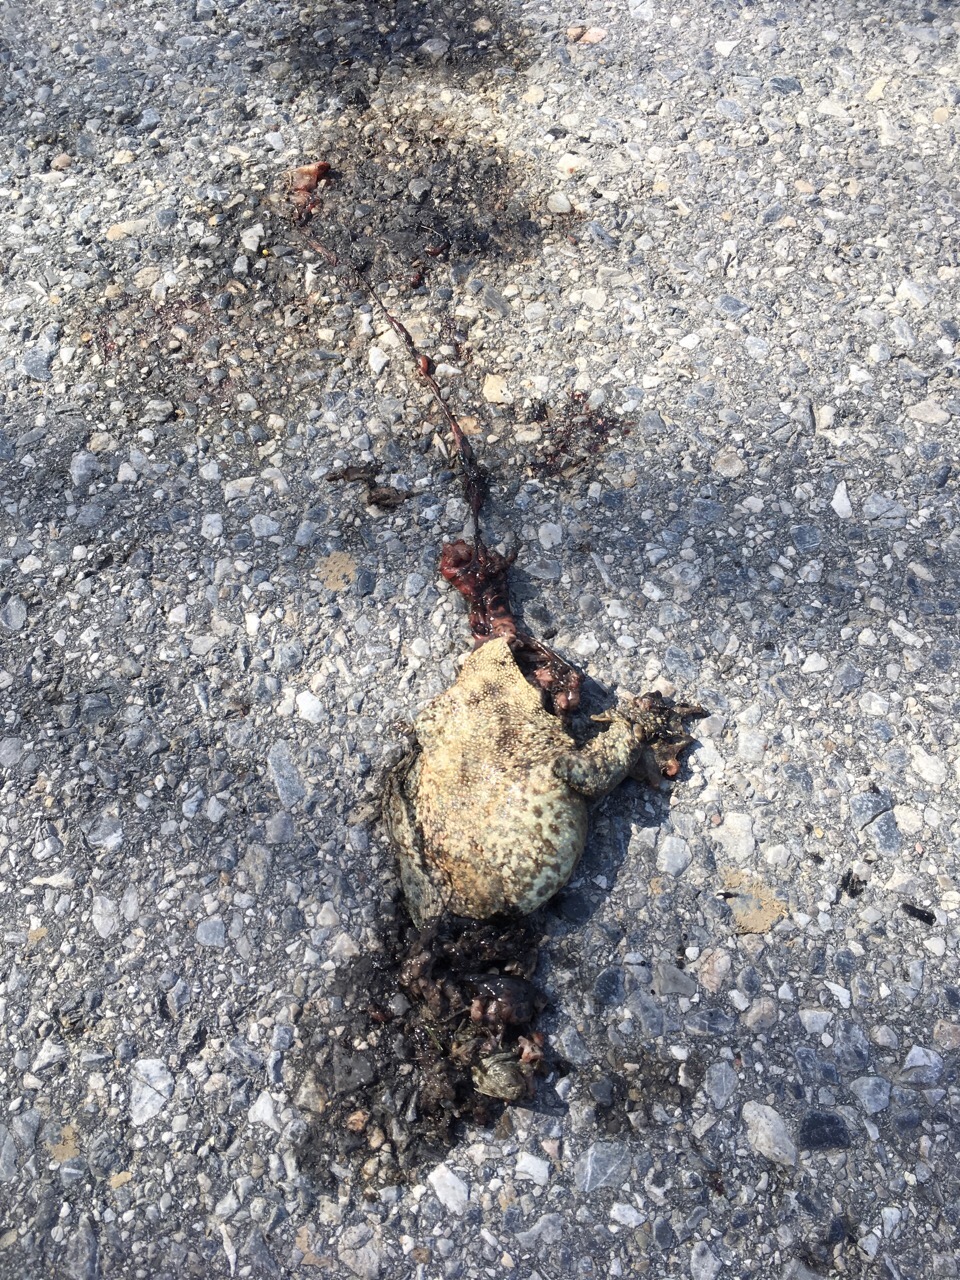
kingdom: Animalia
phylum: Chordata
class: Amphibia
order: Anura
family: Bufonidae
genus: Bufo
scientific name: Bufo bufo
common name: Common toad
